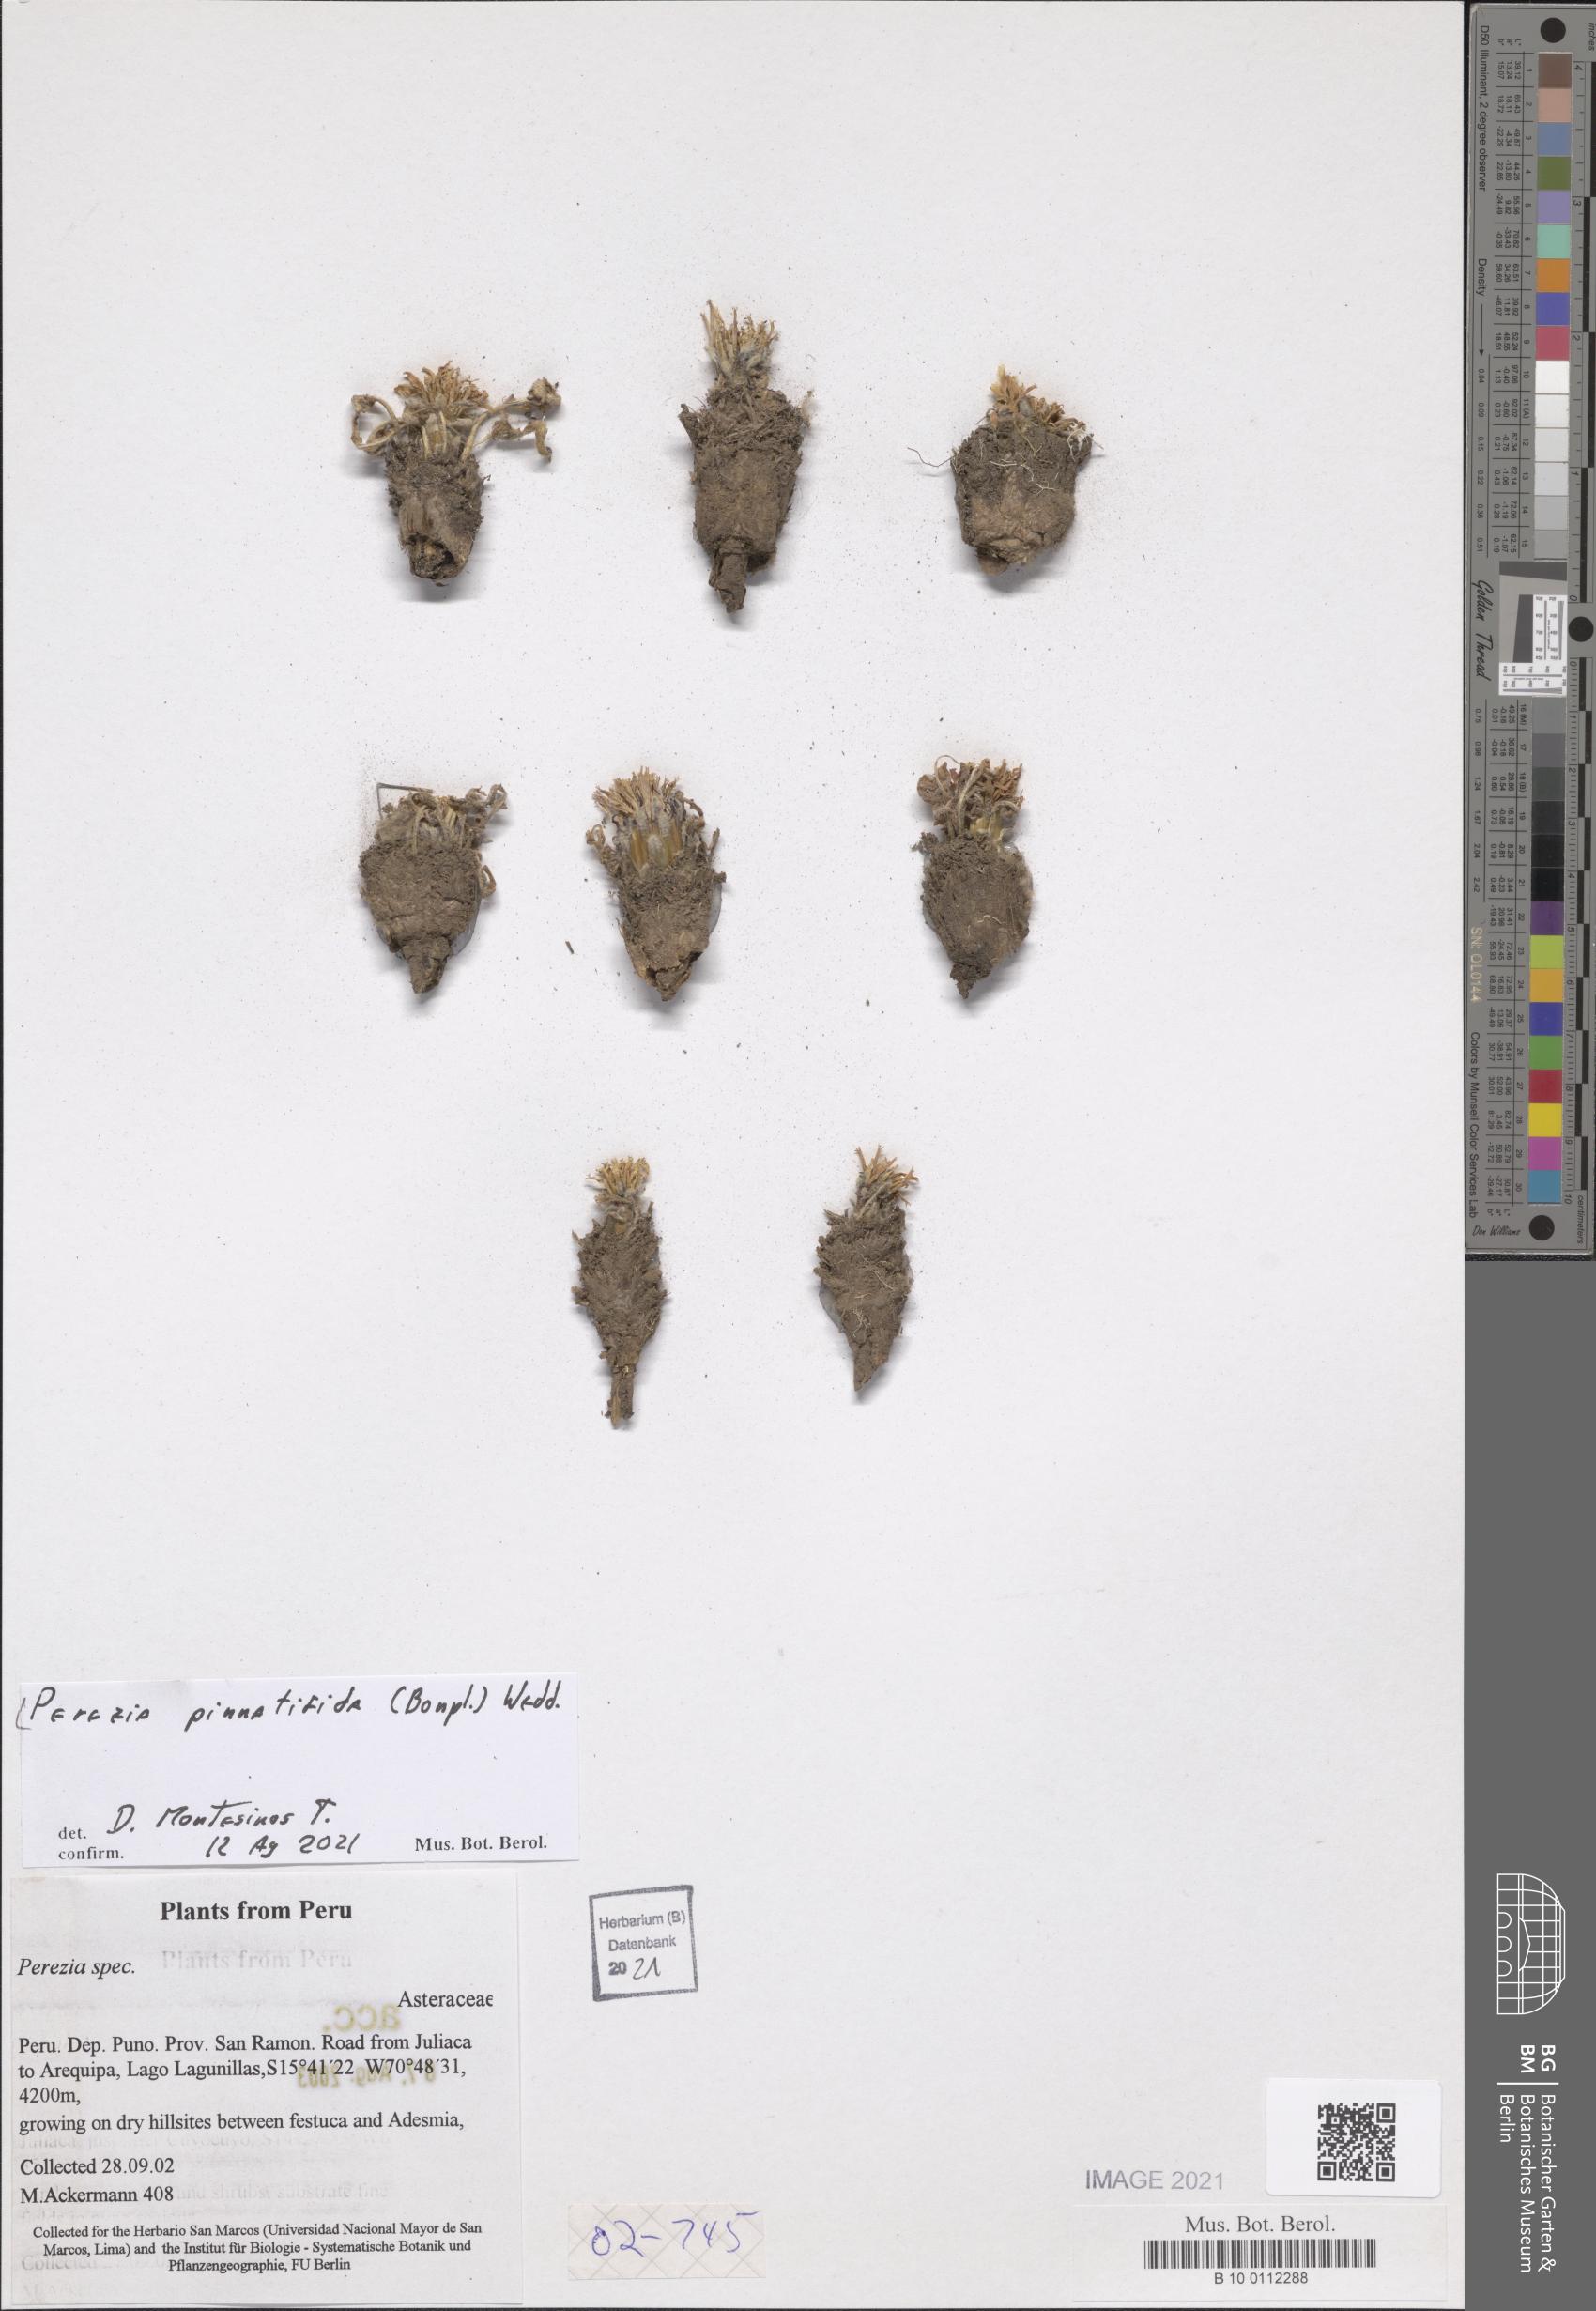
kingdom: Plantae
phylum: Tracheophyta
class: Magnoliopsida
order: Asterales
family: Asteraceae
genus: Perezia
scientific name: Perezia pinnatifida
